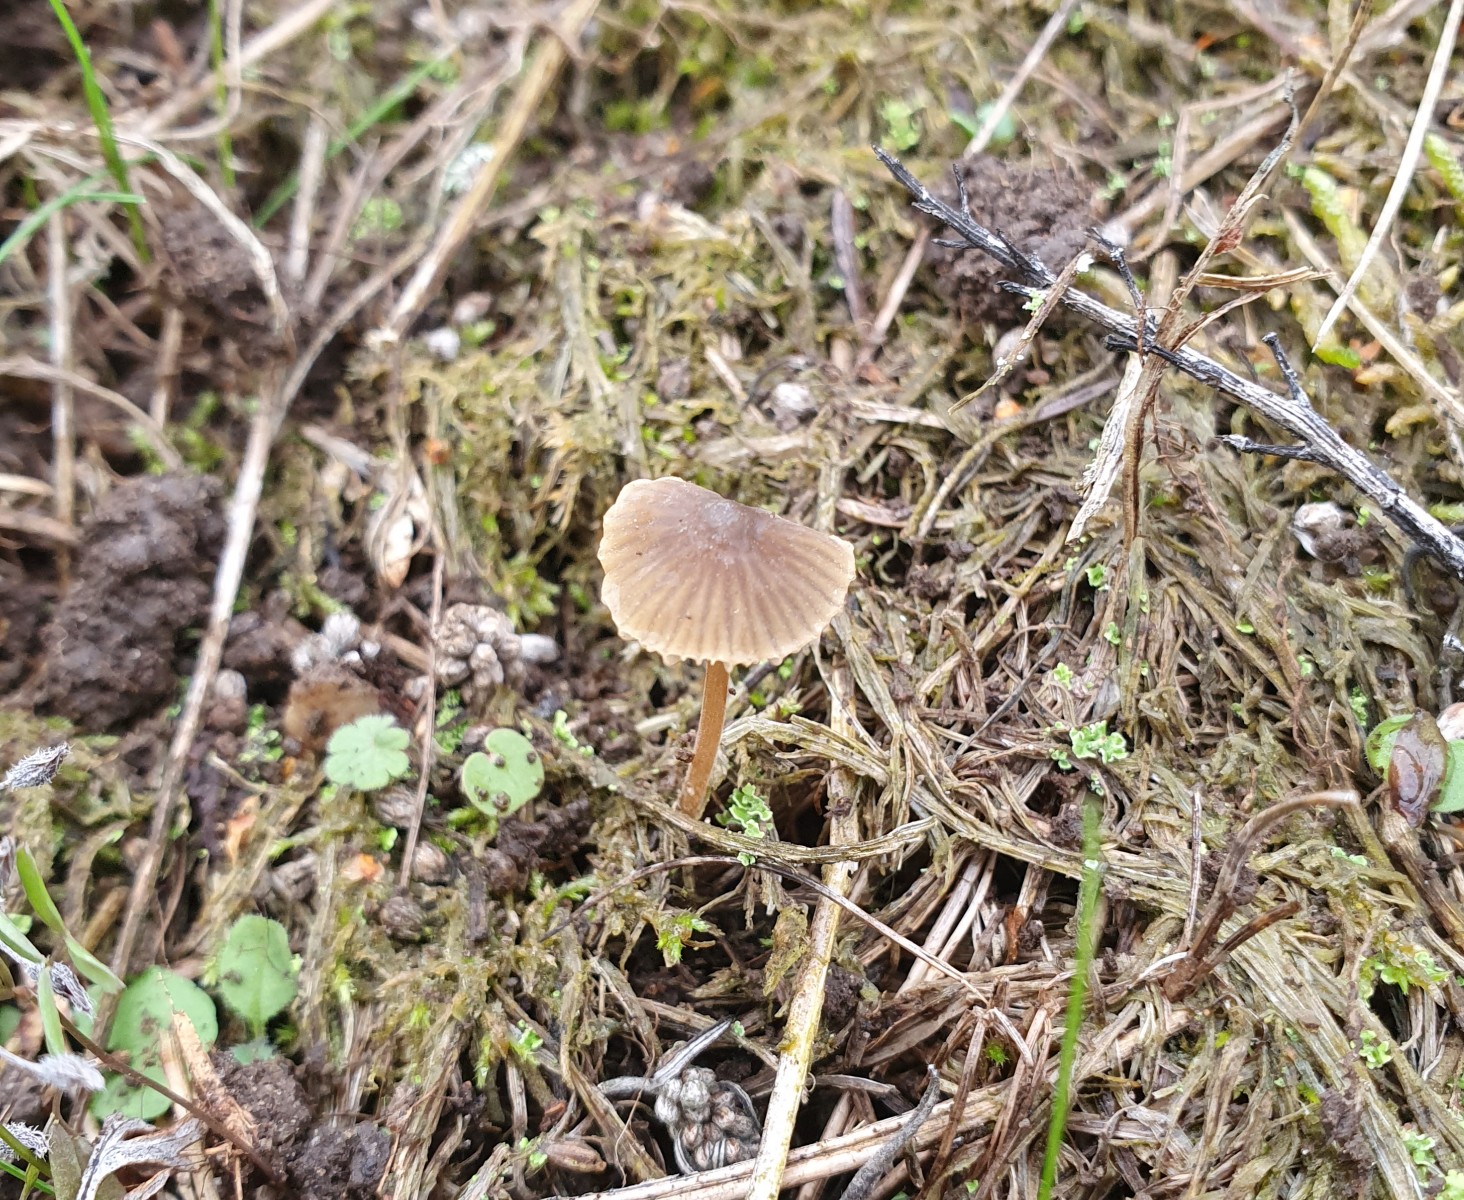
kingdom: Fungi
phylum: Basidiomycota
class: Agaricomycetes
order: Agaricales
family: Mycenaceae
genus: Mycena
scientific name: Mycena olivaceomarginata
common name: brunægget huesvamp
